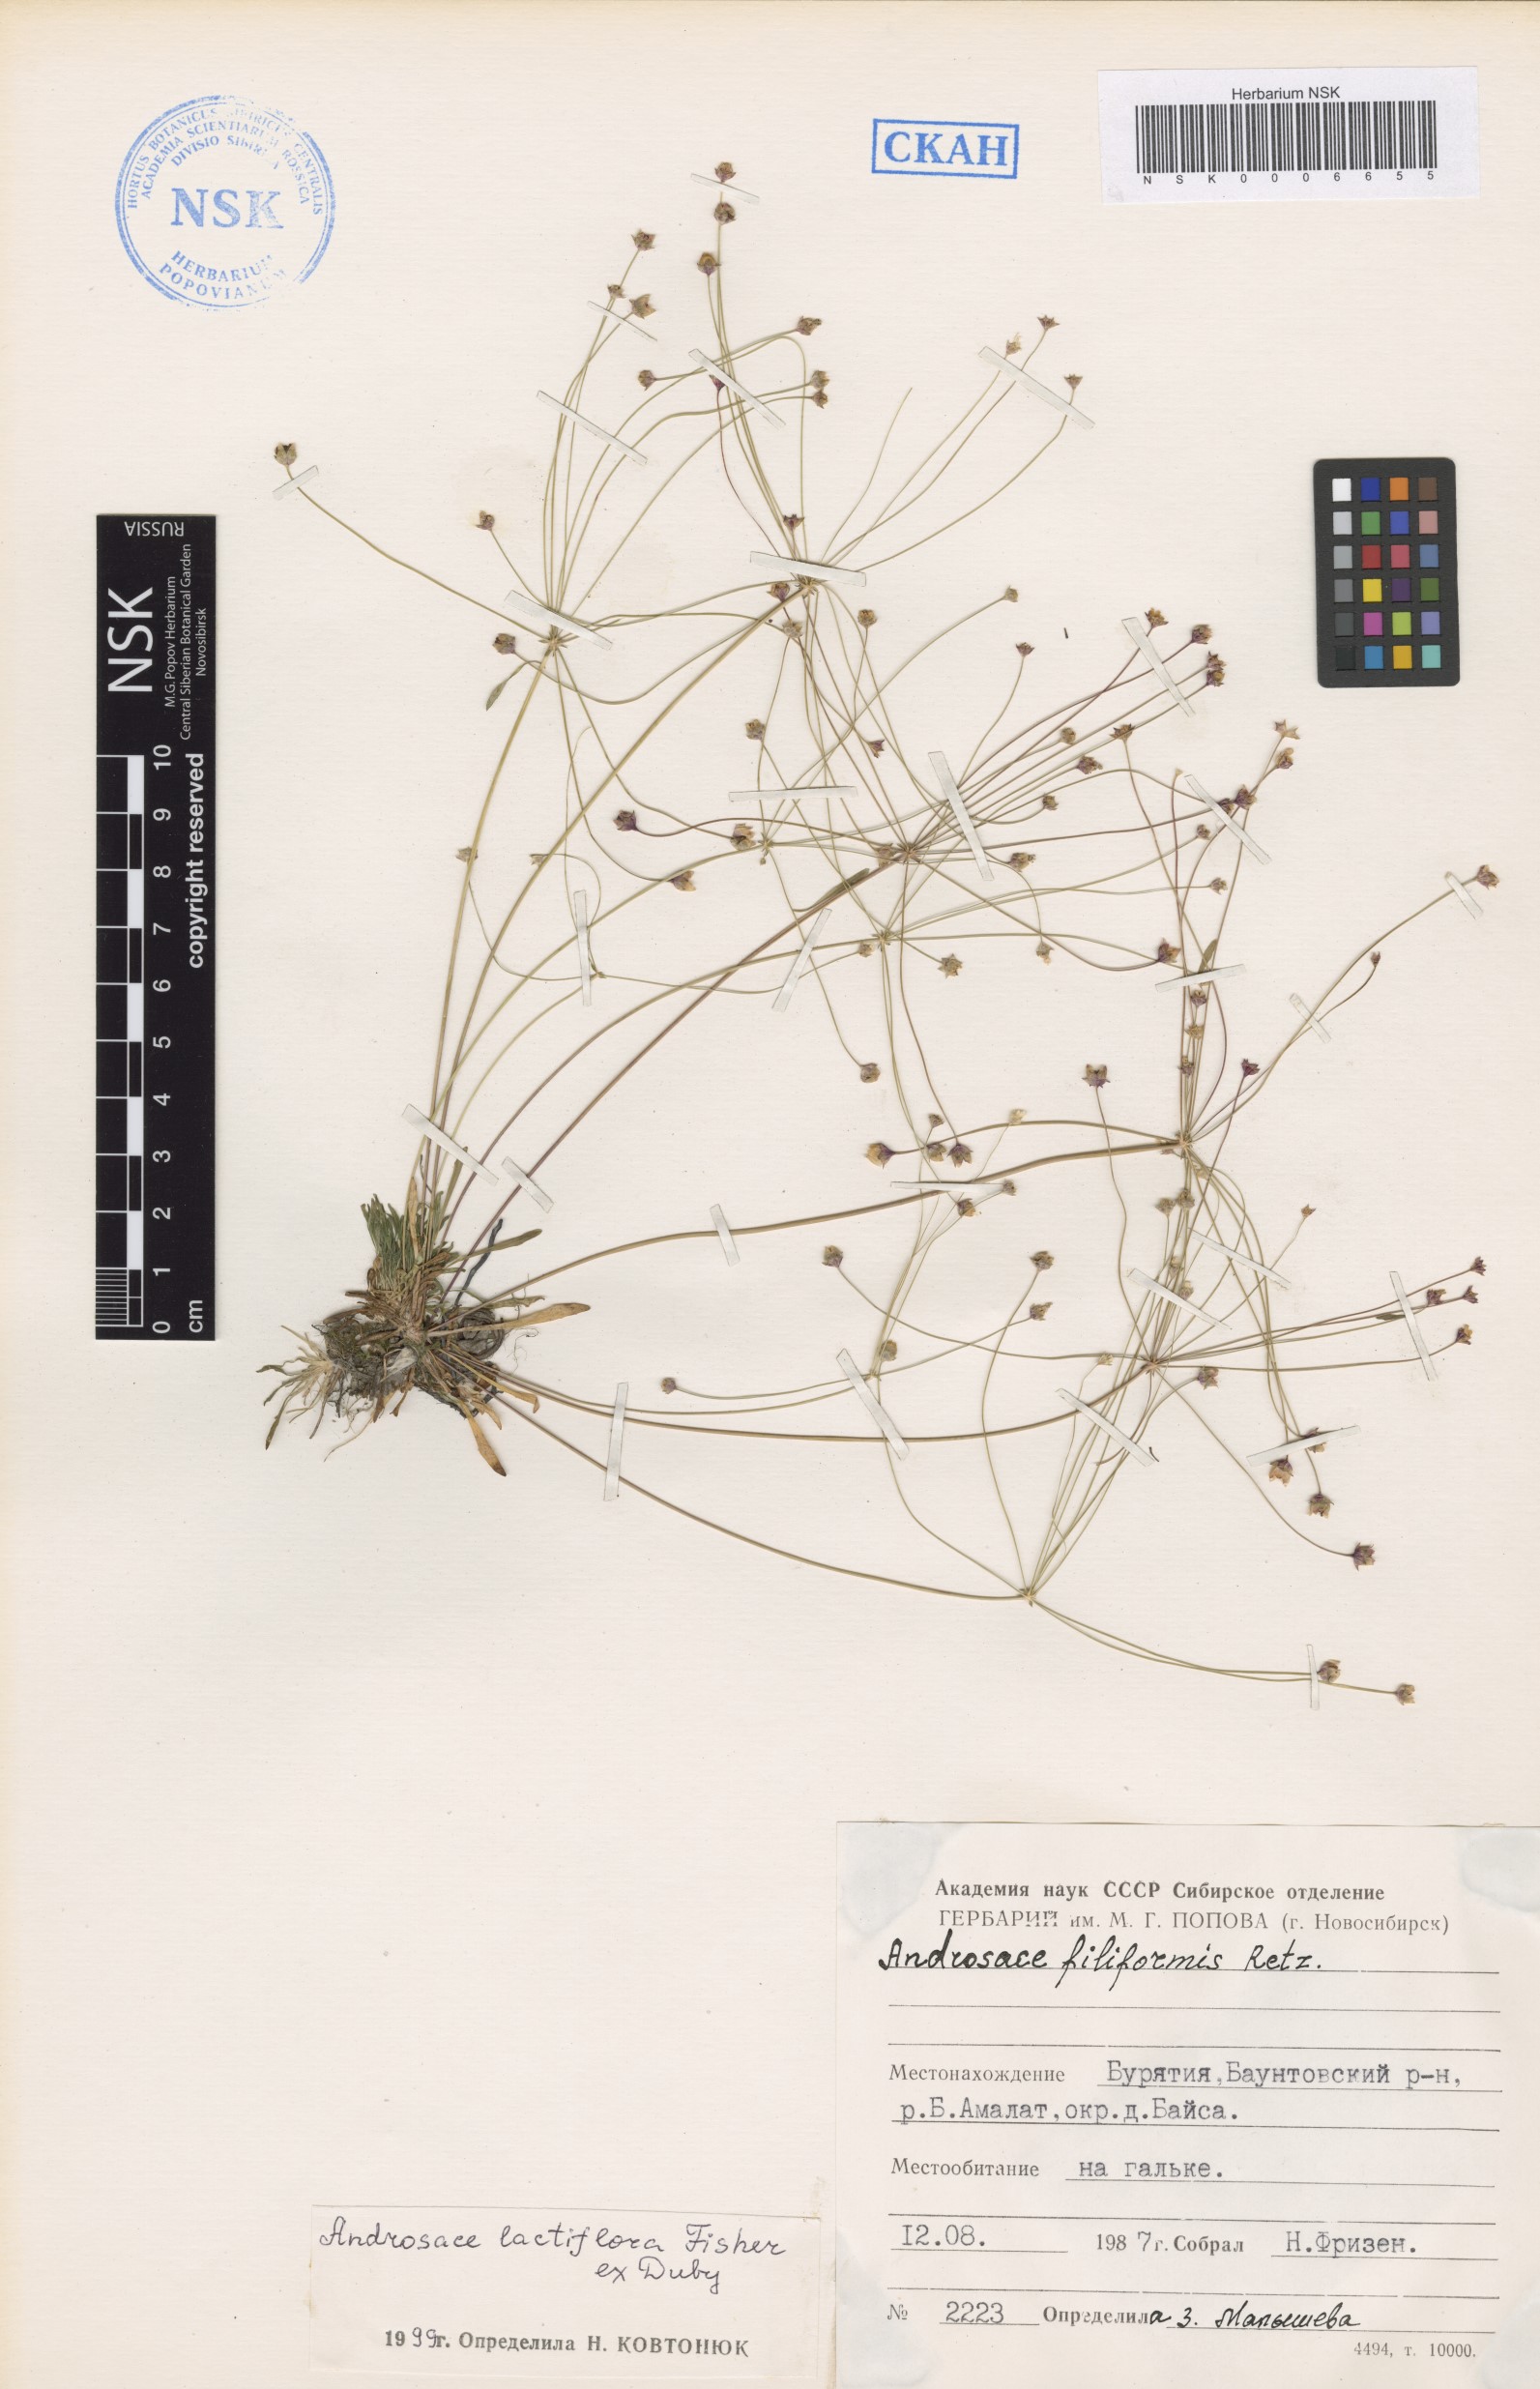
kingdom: Plantae
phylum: Tracheophyta
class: Magnoliopsida
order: Ericales
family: Primulaceae
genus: Androsace
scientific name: Androsace lactiflora
